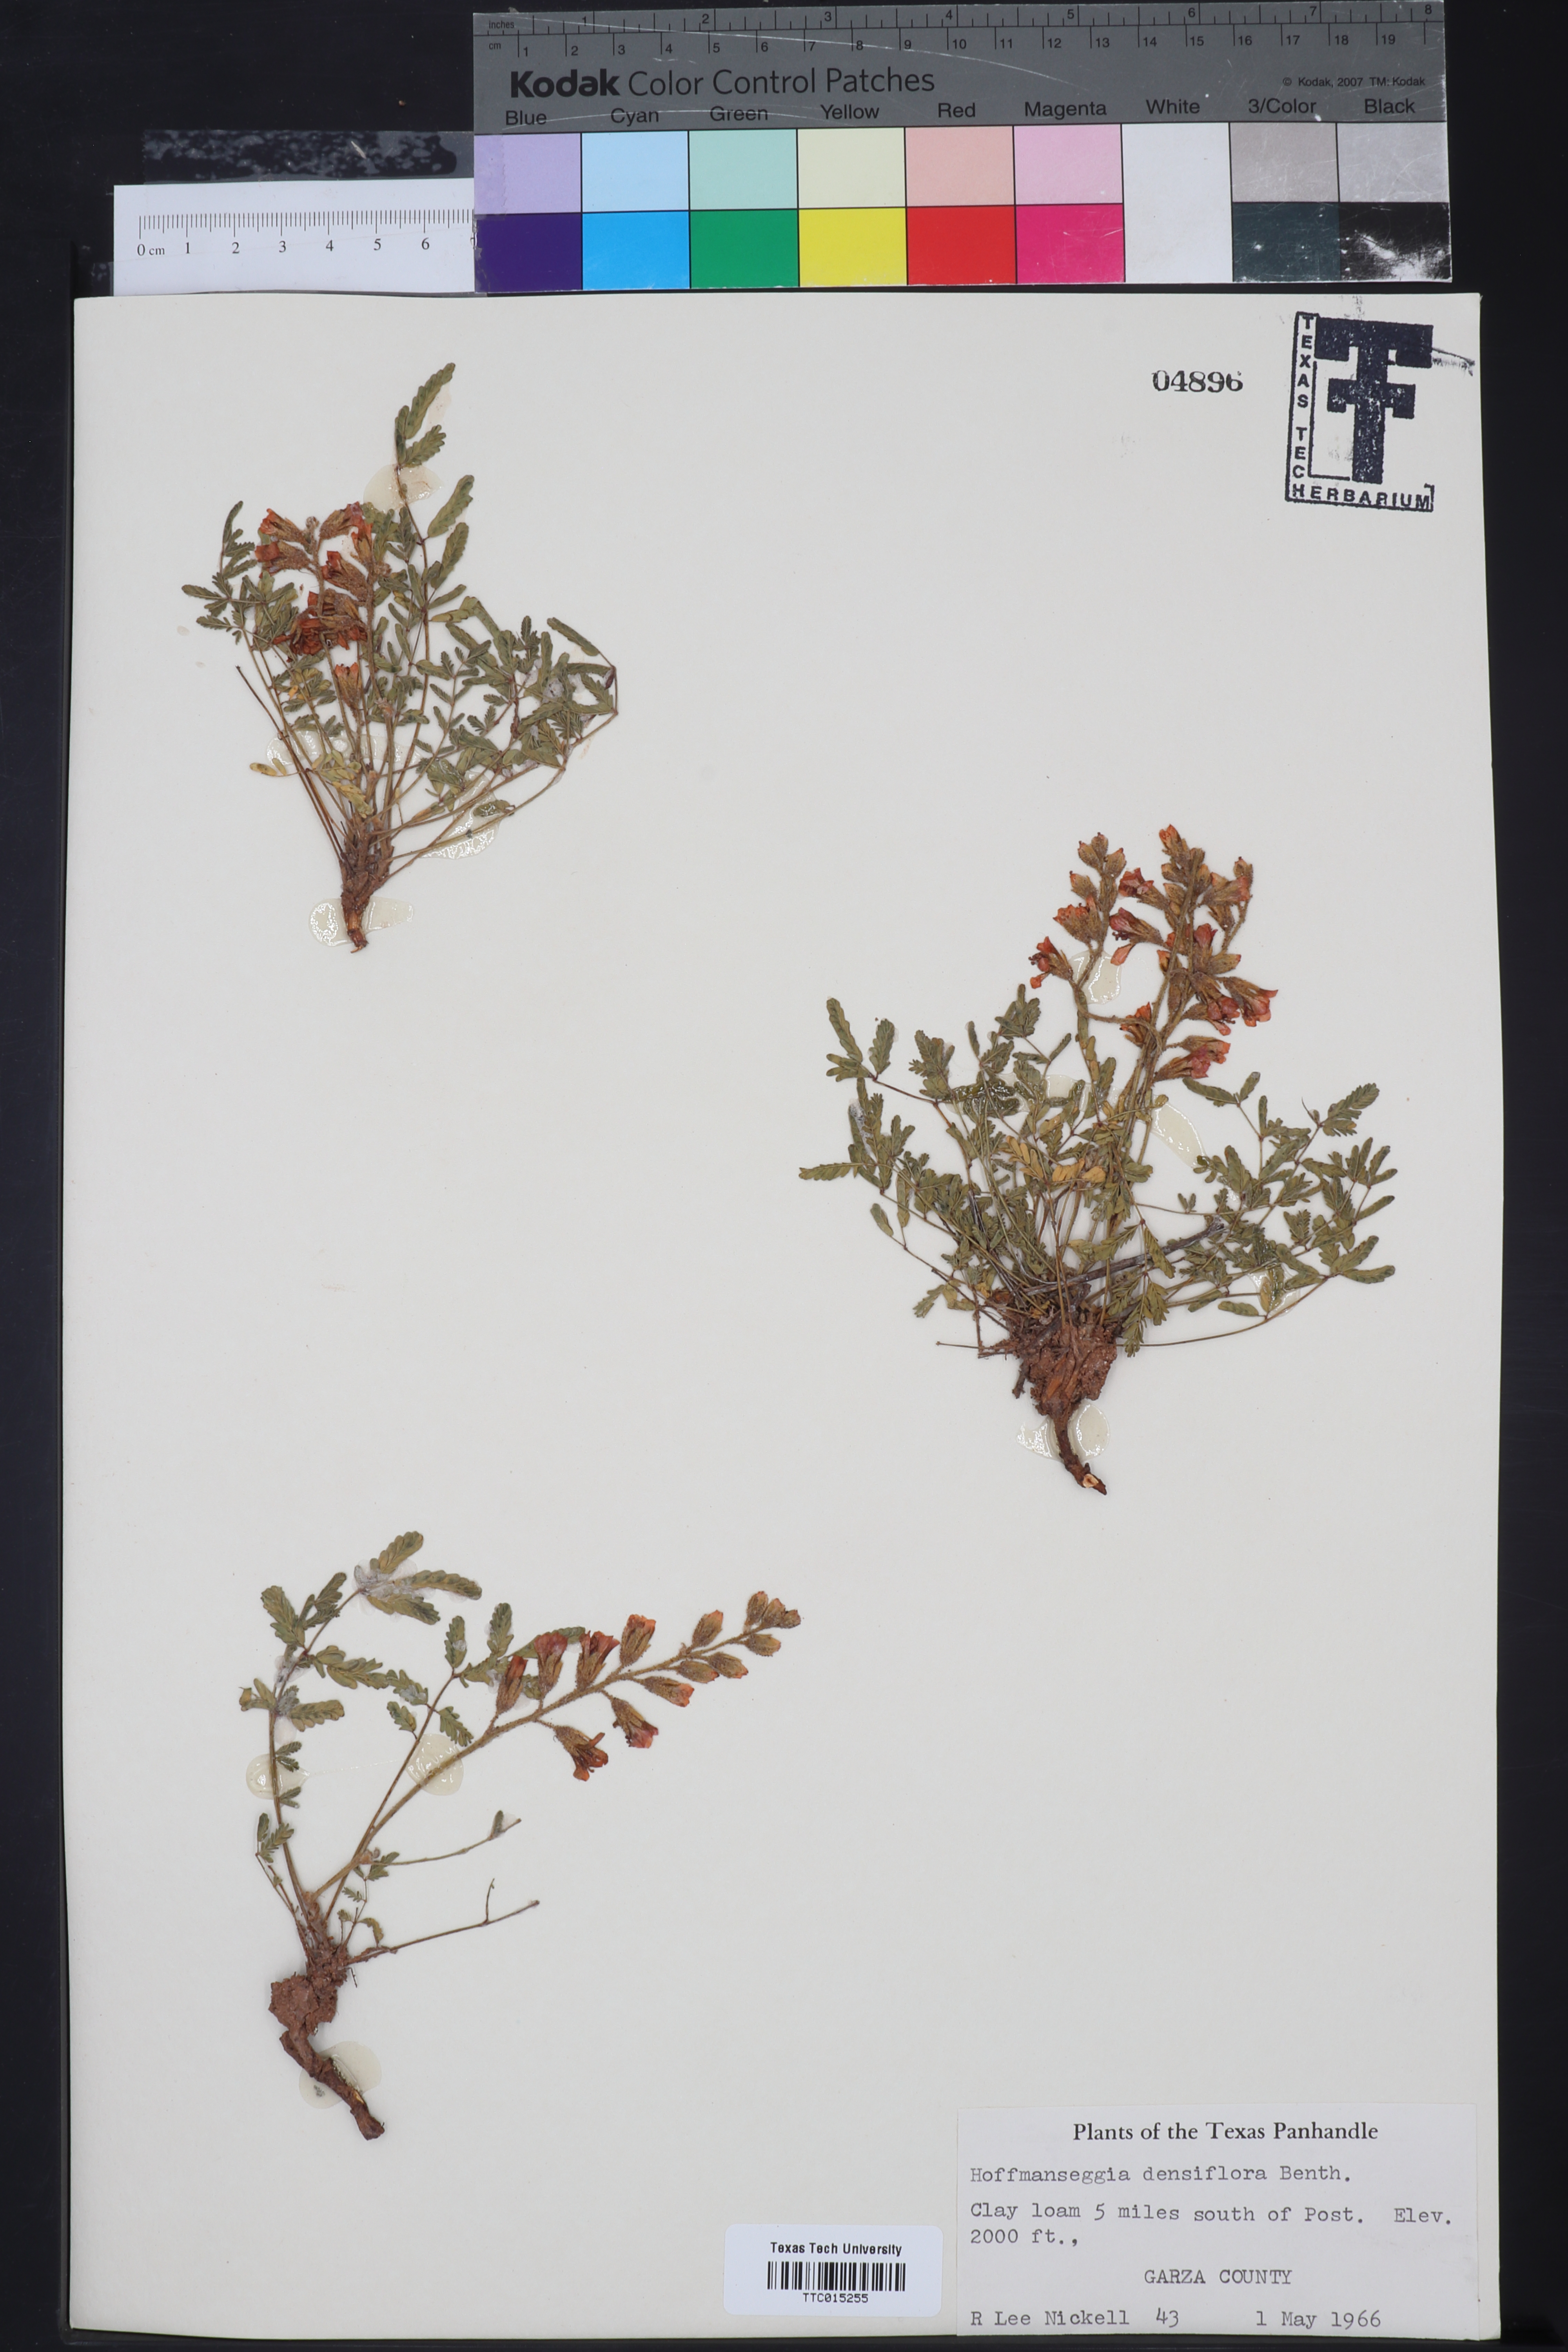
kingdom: Plantae
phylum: Tracheophyta
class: Magnoliopsida
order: Fabales
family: Fabaceae
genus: Hoffmannseggia
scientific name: Hoffmannseggia glauca
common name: Pignut
